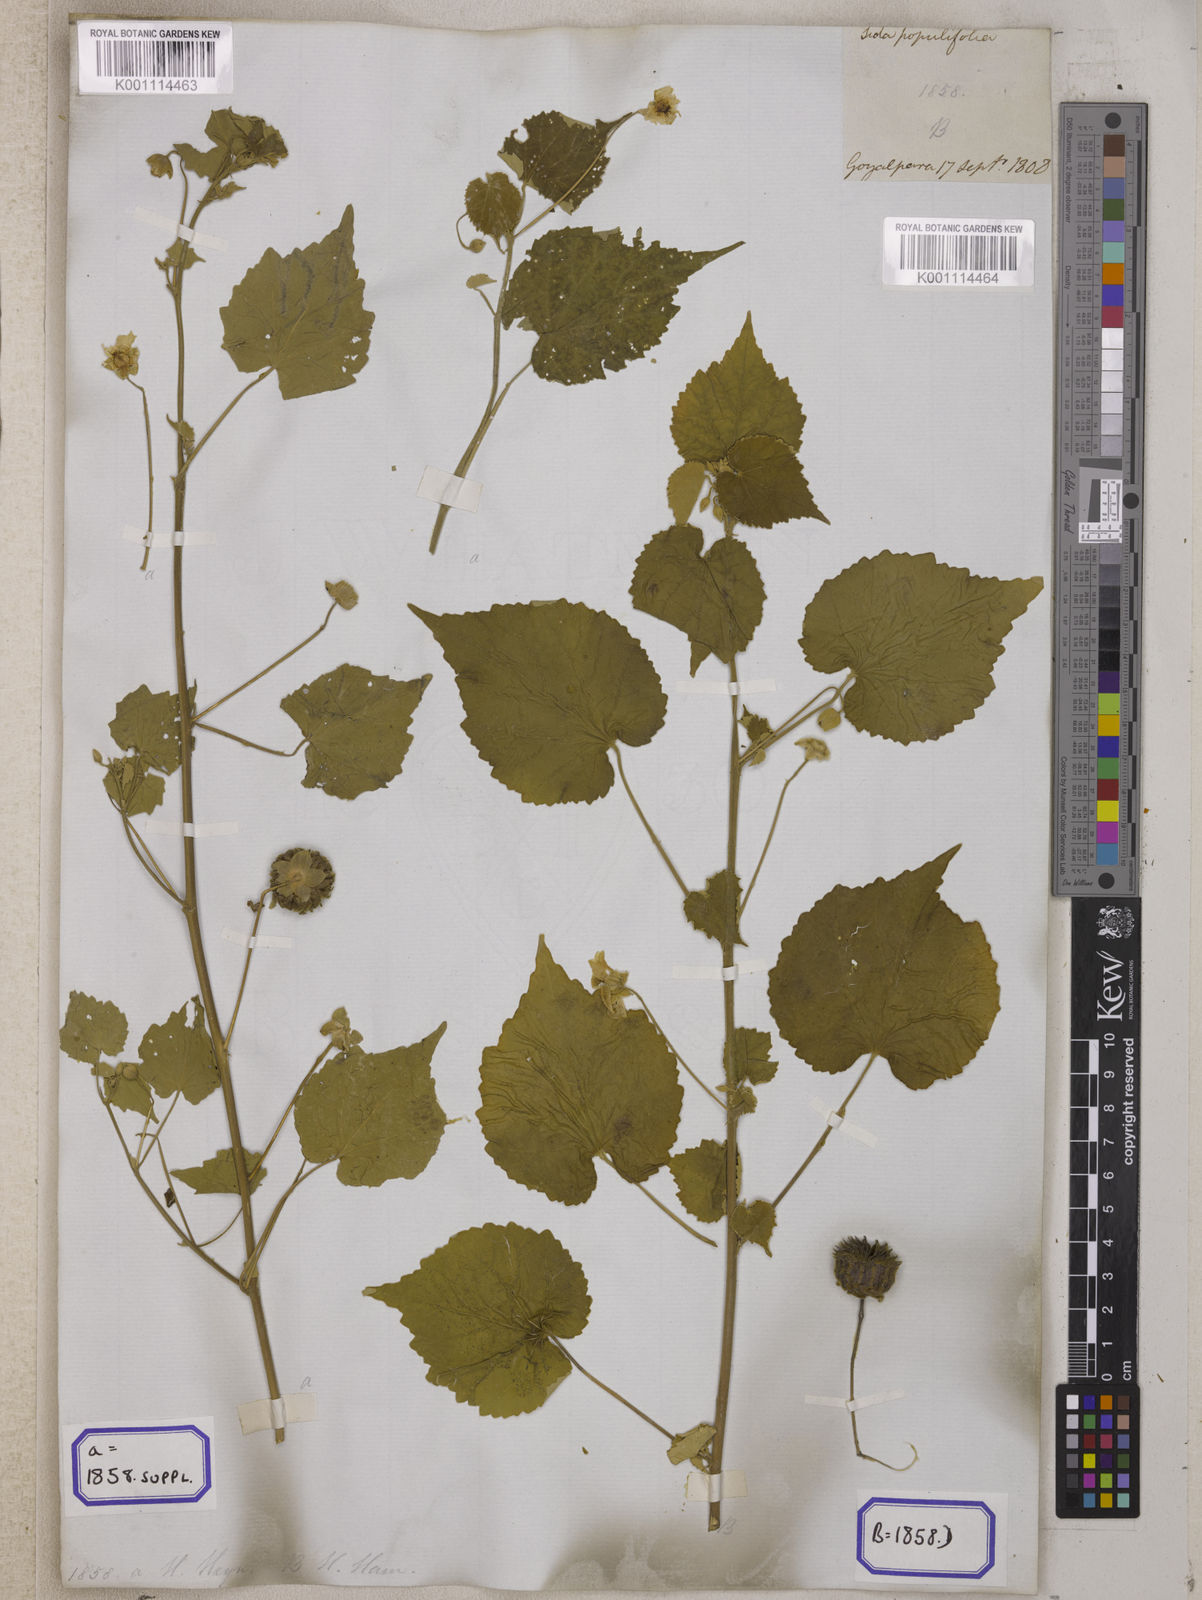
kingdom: Plantae
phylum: Tracheophyta
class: Magnoliopsida
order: Malvales
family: Malvaceae
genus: Abutilon
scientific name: Abutilon indicum
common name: Indian abutilon
